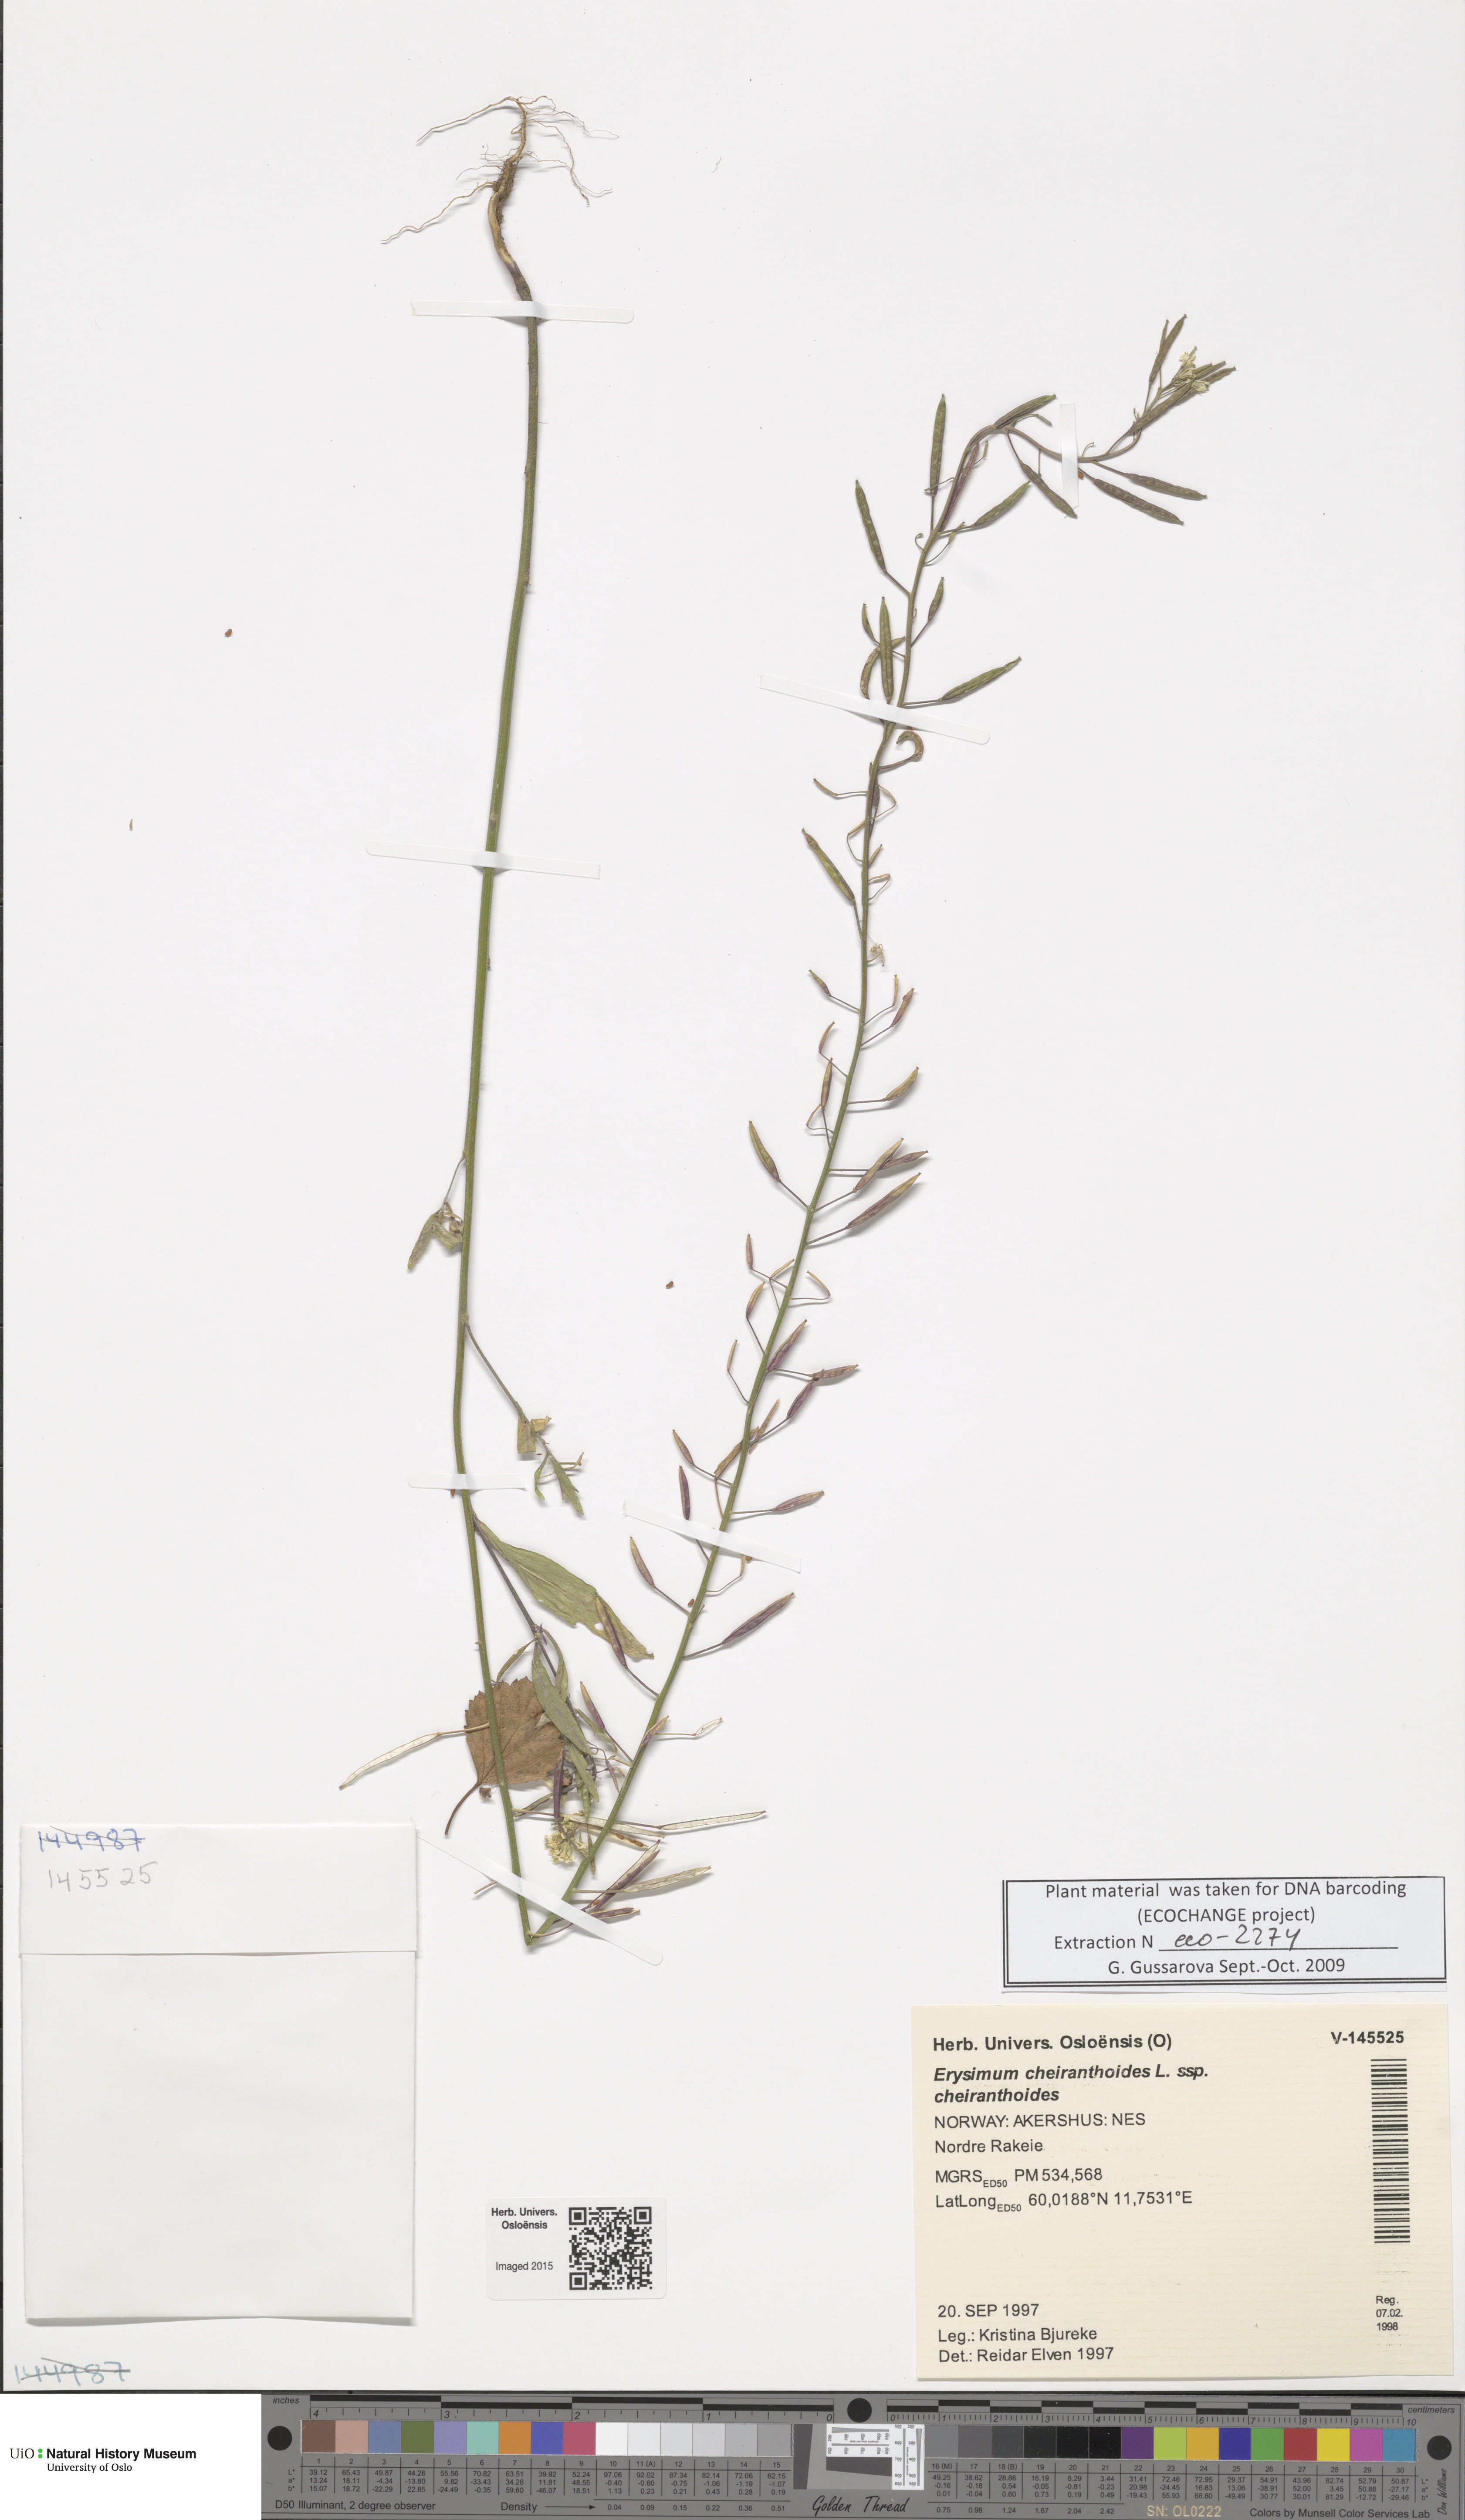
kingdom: Plantae
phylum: Tracheophyta
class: Magnoliopsida
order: Brassicales
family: Brassicaceae
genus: Erysimum
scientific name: Erysimum cheiranthoides
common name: Treacle mustard
